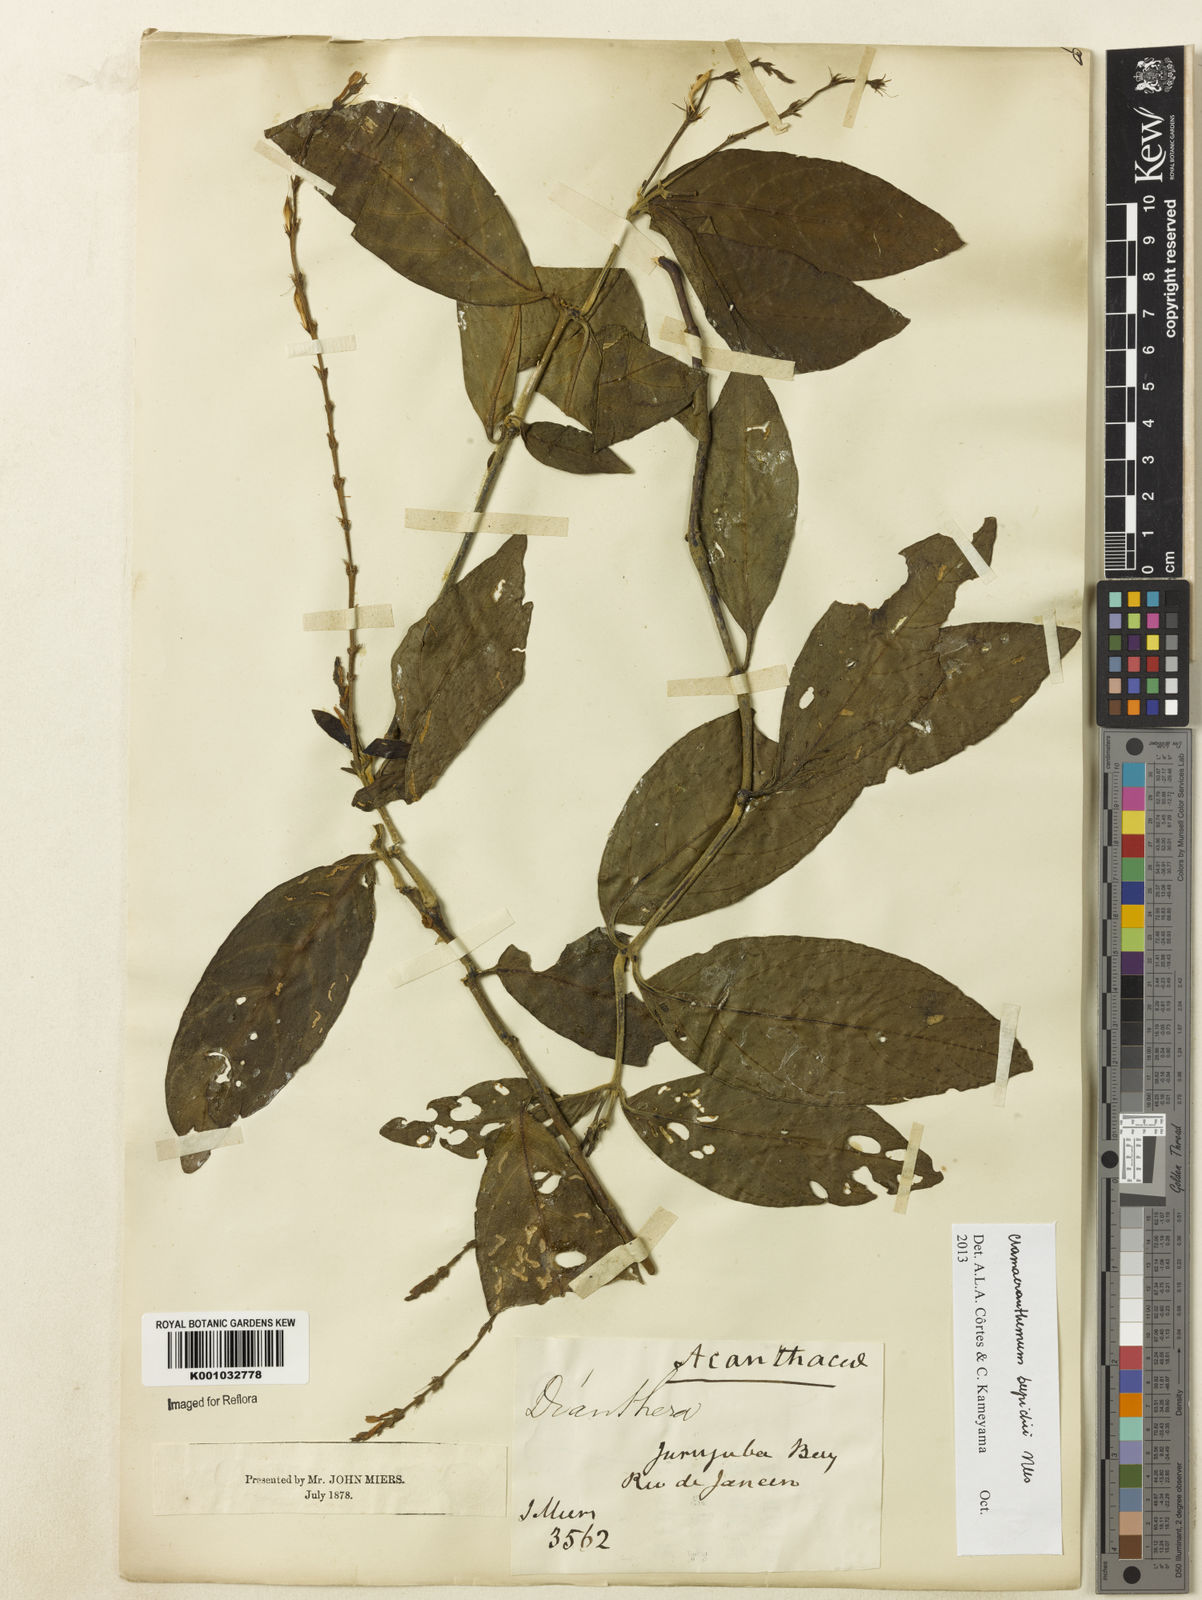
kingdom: Plantae
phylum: Tracheophyta
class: Magnoliopsida
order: Lamiales
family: Acanthaceae
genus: Chamaeranthemum
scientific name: Chamaeranthemum beyrichii
